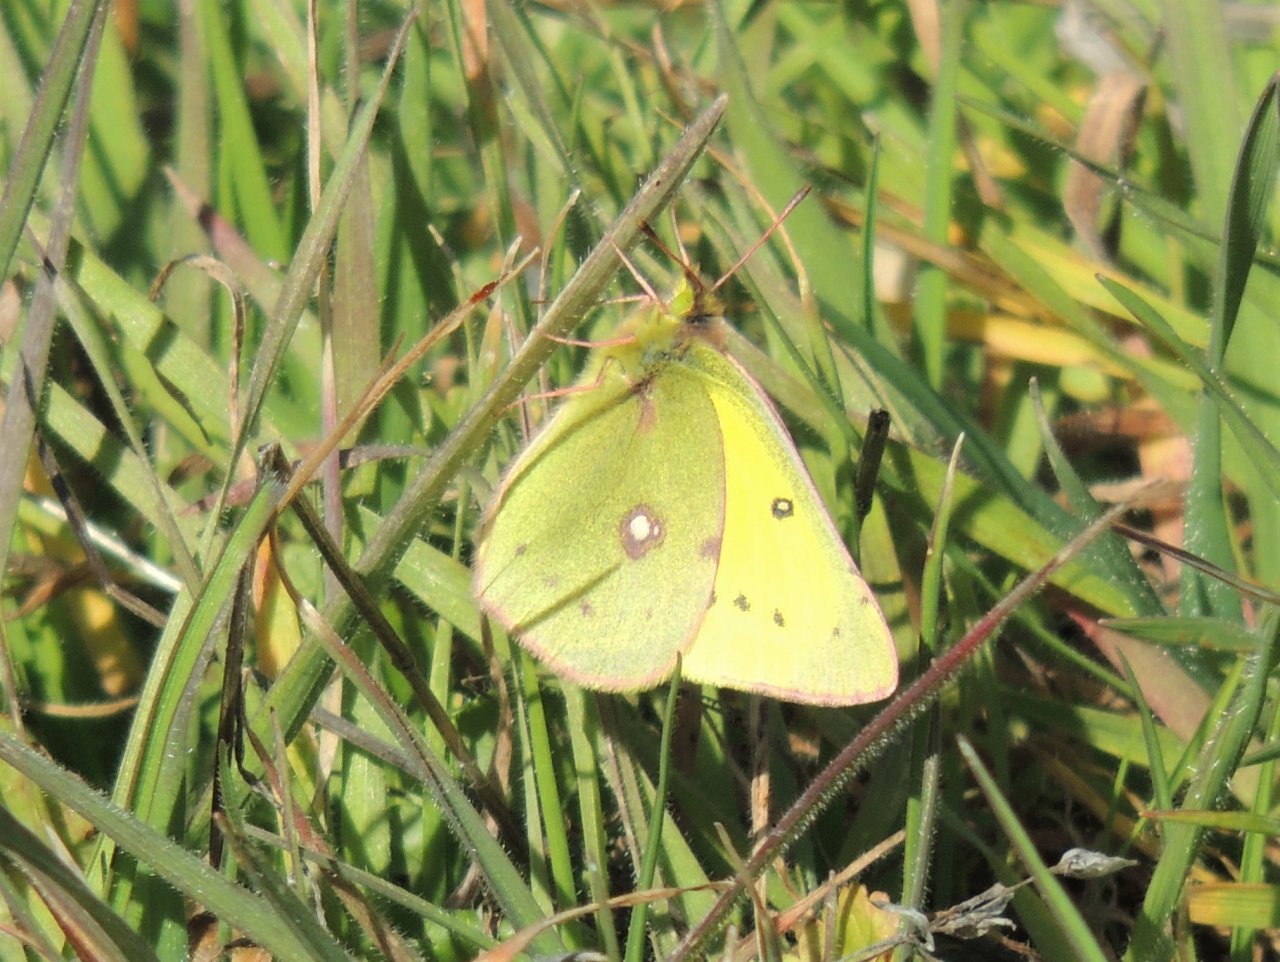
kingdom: Animalia
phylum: Arthropoda
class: Insecta
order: Lepidoptera
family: Pieridae
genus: Colias
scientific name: Colias eurytheme
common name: Orange Sulphur
